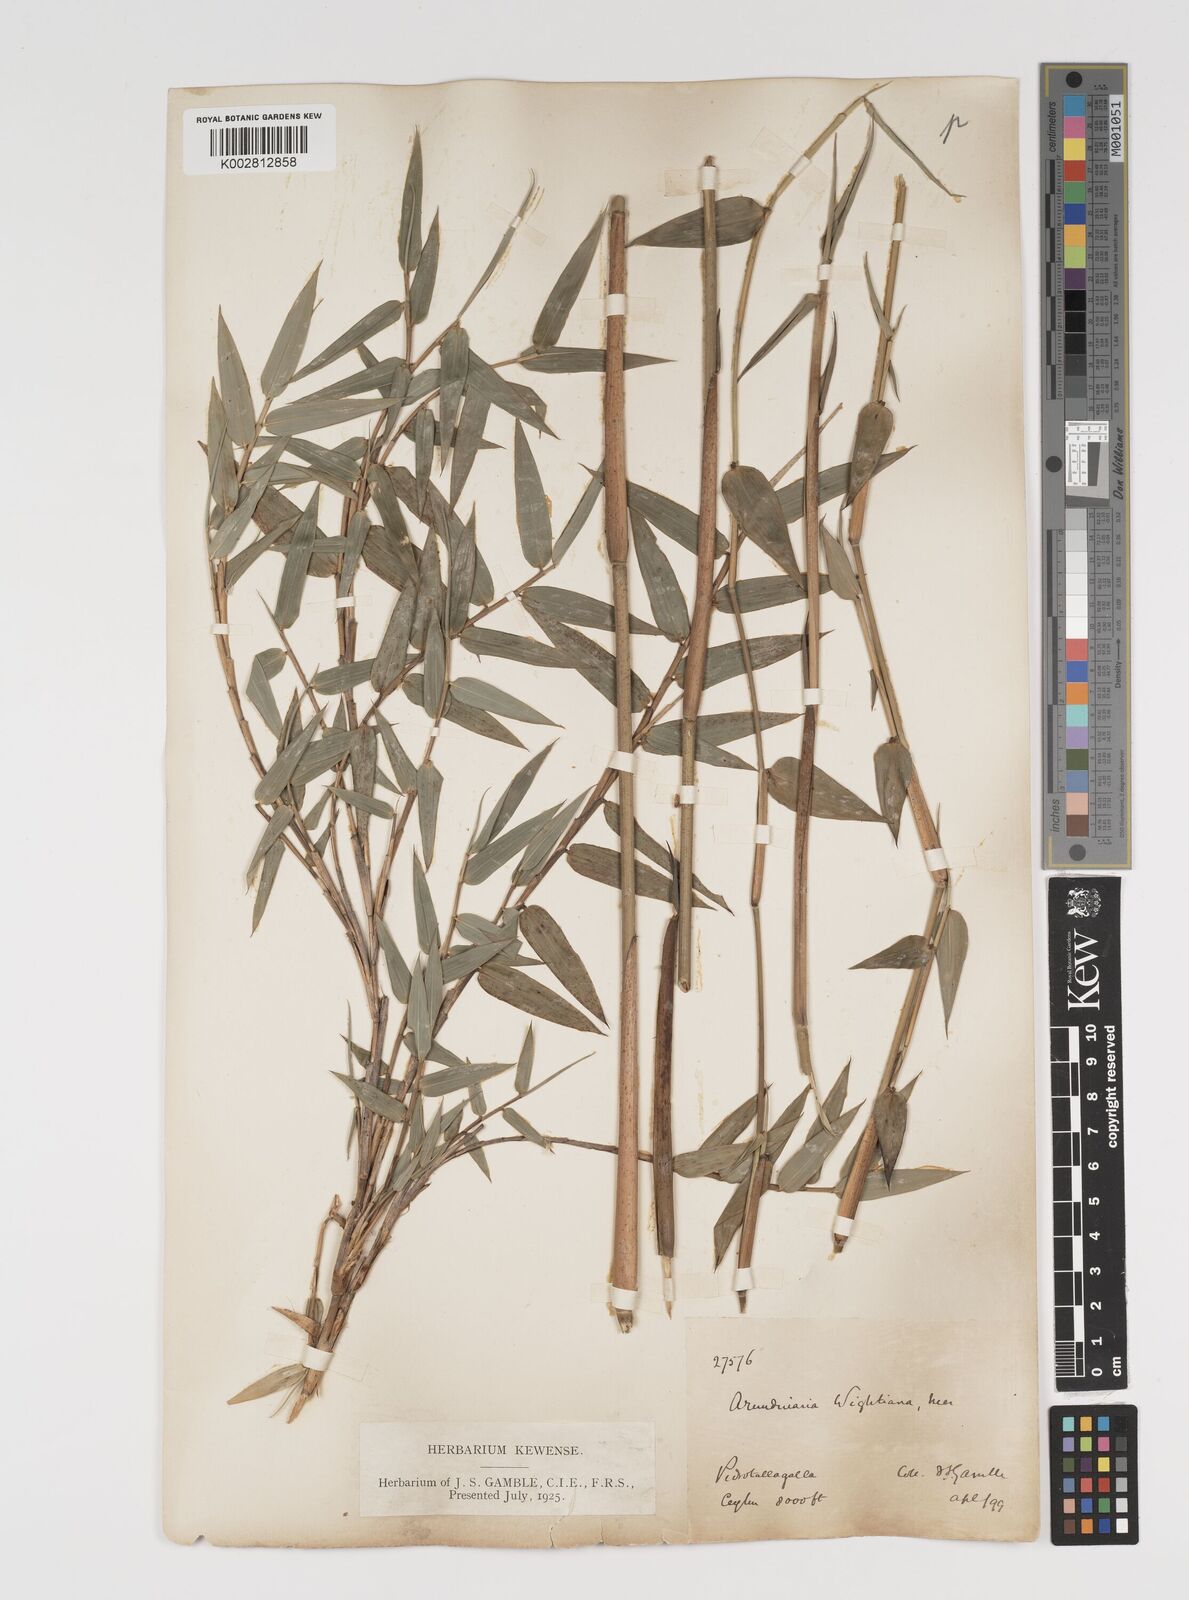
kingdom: Plantae
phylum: Tracheophyta
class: Liliopsida
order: Poales
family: Poaceae
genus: Kuruna
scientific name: Kuruna scandens
